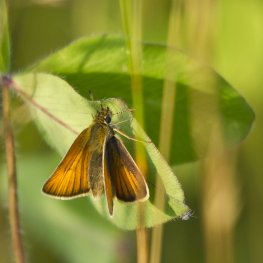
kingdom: Animalia
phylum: Arthropoda
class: Insecta
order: Lepidoptera
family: Hesperiidae
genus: Thymelicus
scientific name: Thymelicus lineola
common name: European Skipper
